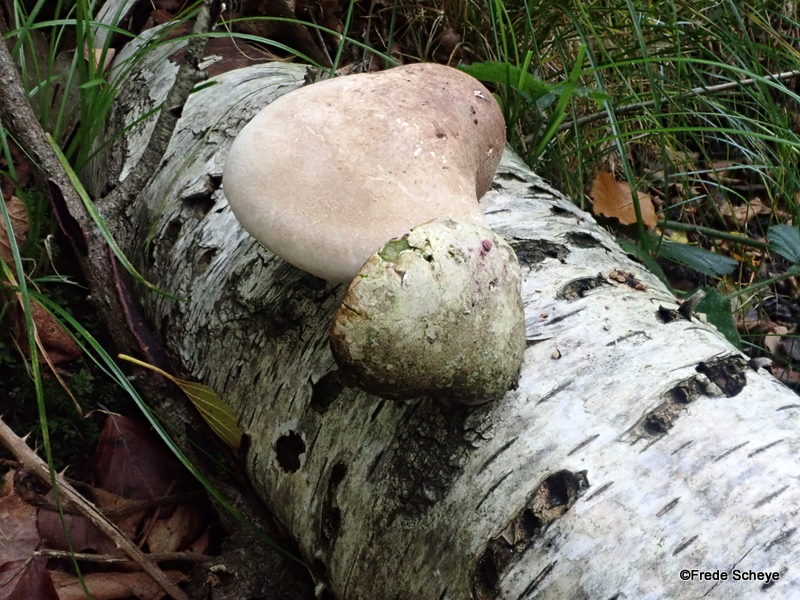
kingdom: Fungi
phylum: Basidiomycota
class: Agaricomycetes
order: Polyporales
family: Fomitopsidaceae
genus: Fomitopsis
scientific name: Fomitopsis betulina
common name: birkeporesvamp
